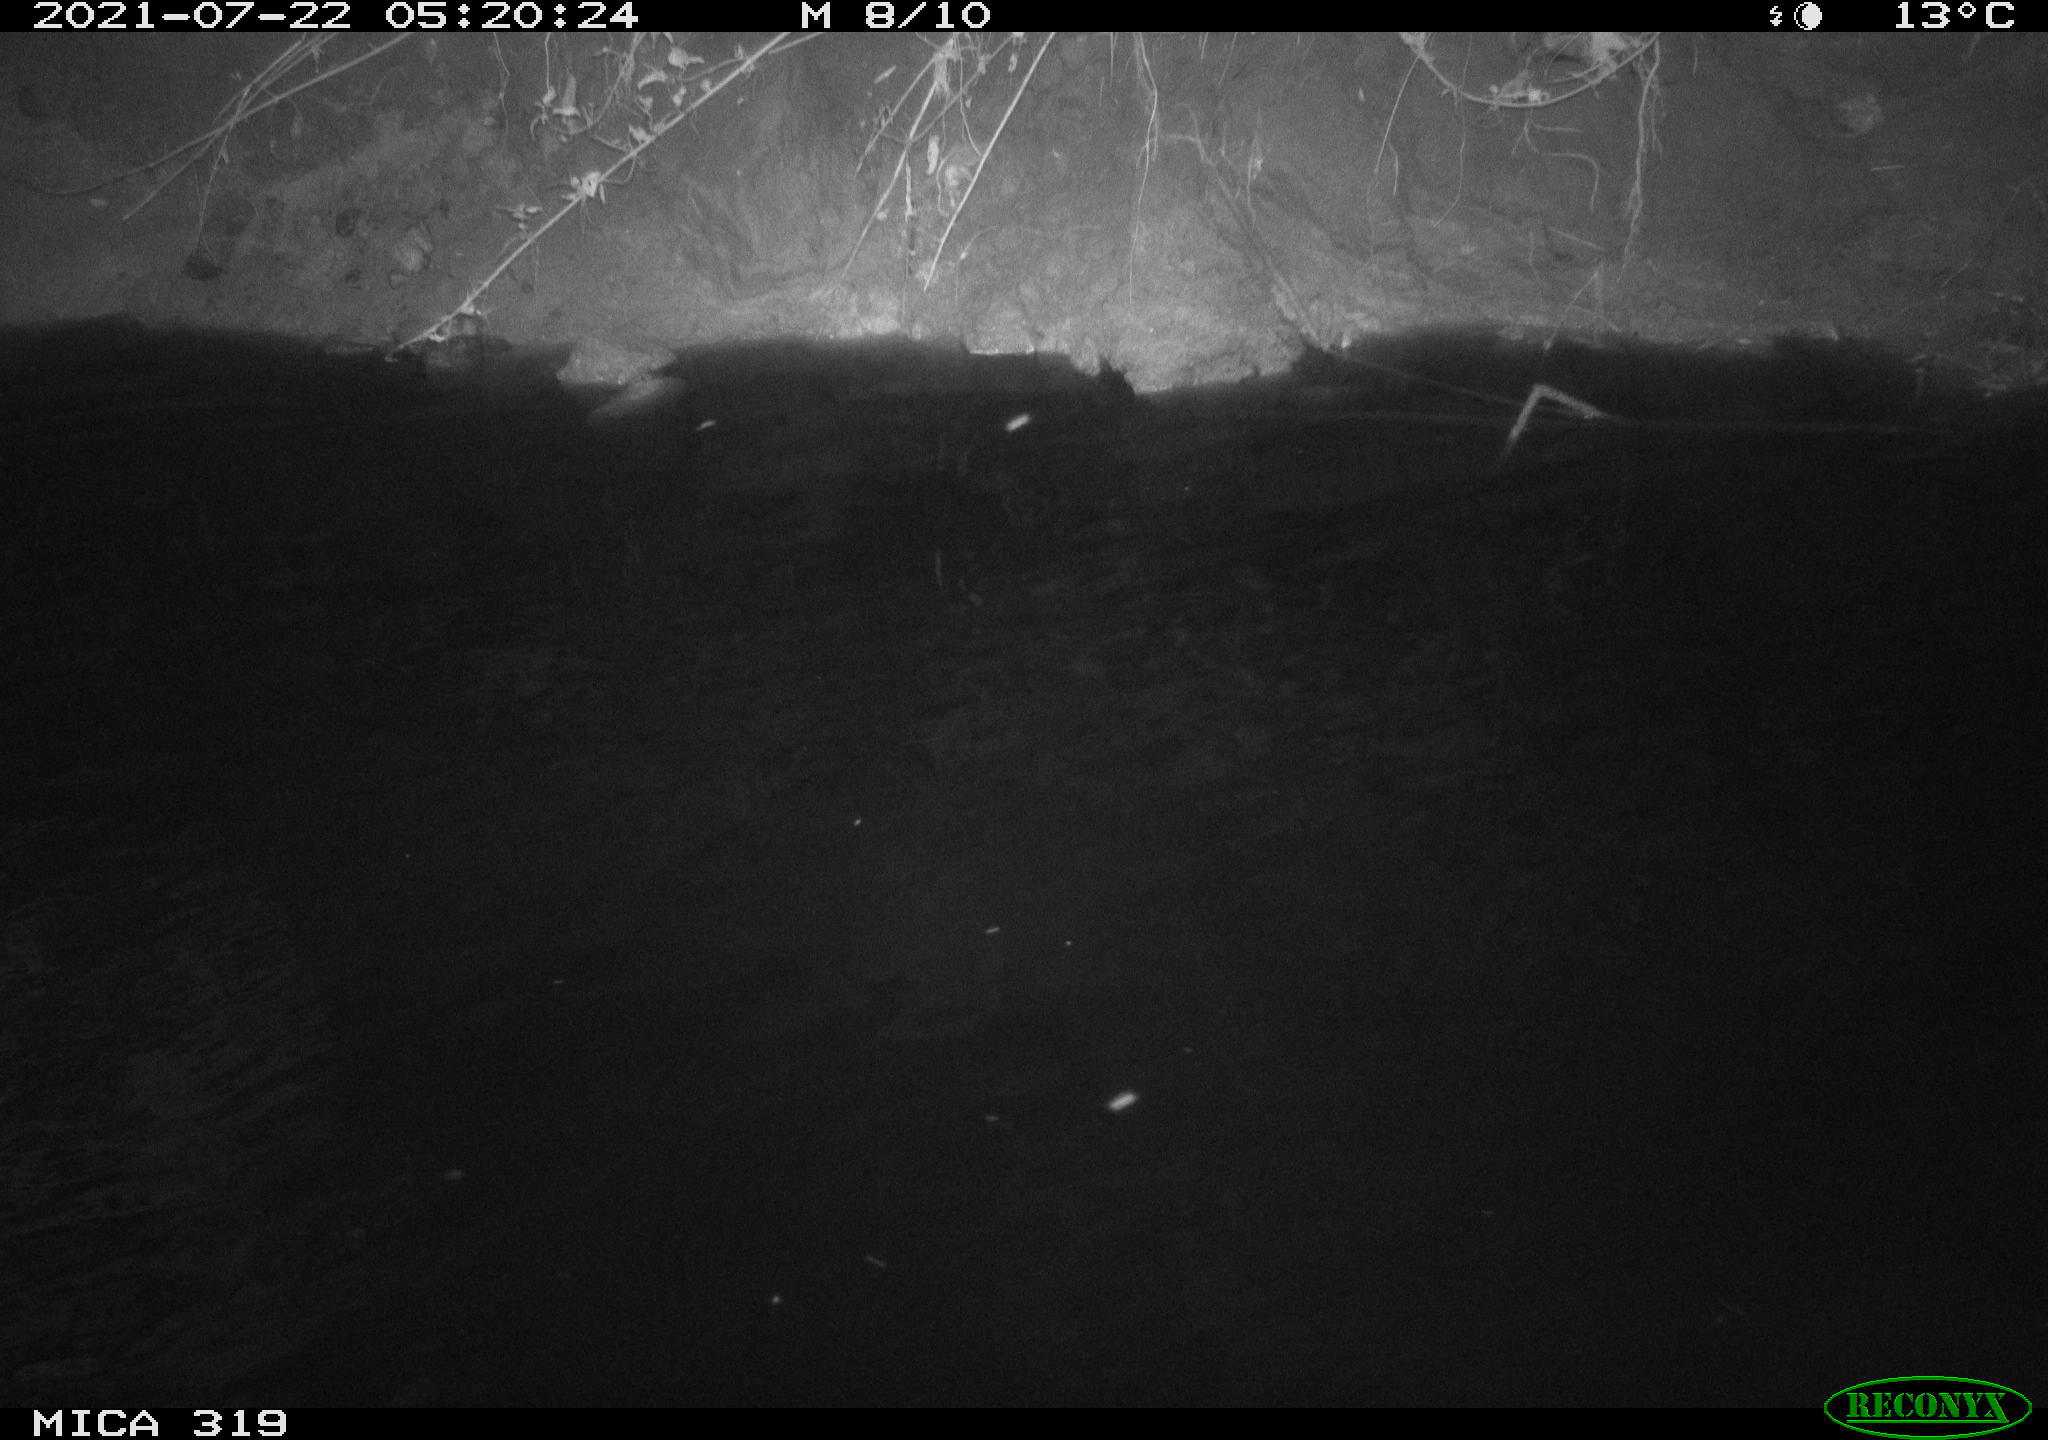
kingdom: Animalia
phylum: Chordata
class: Aves
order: Anseriformes
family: Anatidae
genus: Anas
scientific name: Anas platyrhynchos
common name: Mallard
